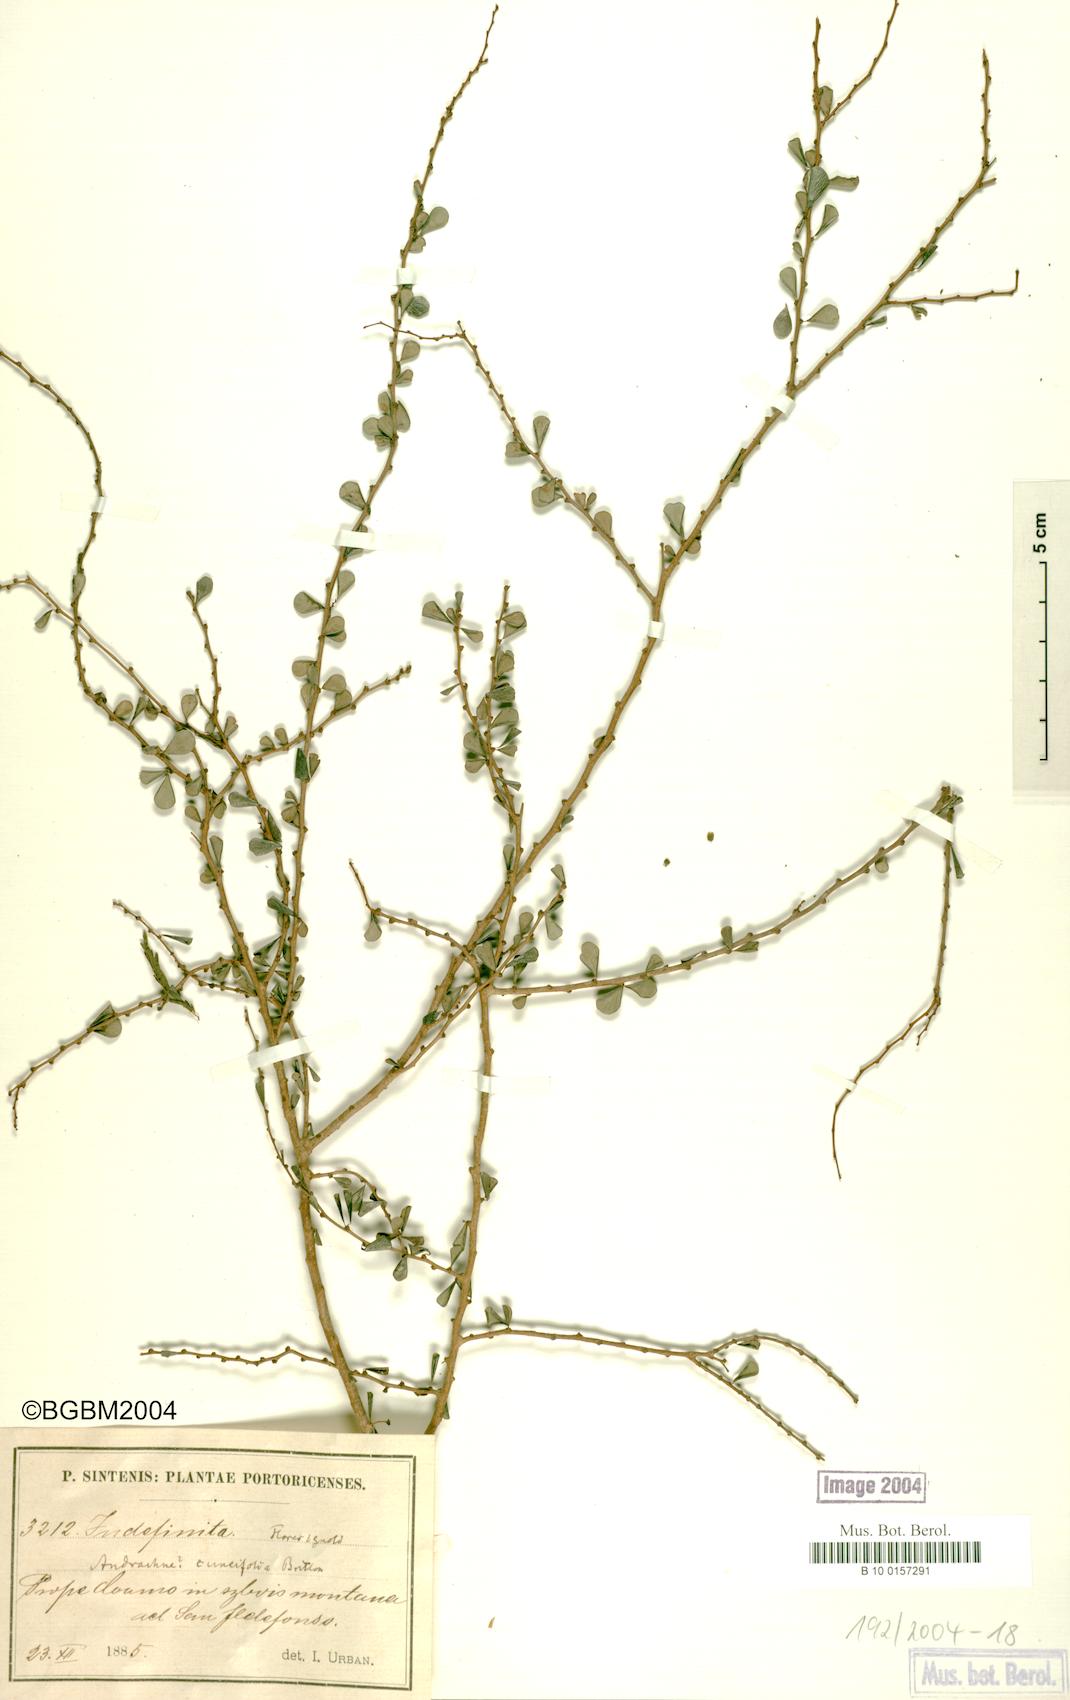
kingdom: Plantae
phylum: Tracheophyta
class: Magnoliopsida
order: Malpighiales
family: Phyllanthaceae
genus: Phyllanthus
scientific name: Phyllanthus cuneifolius
